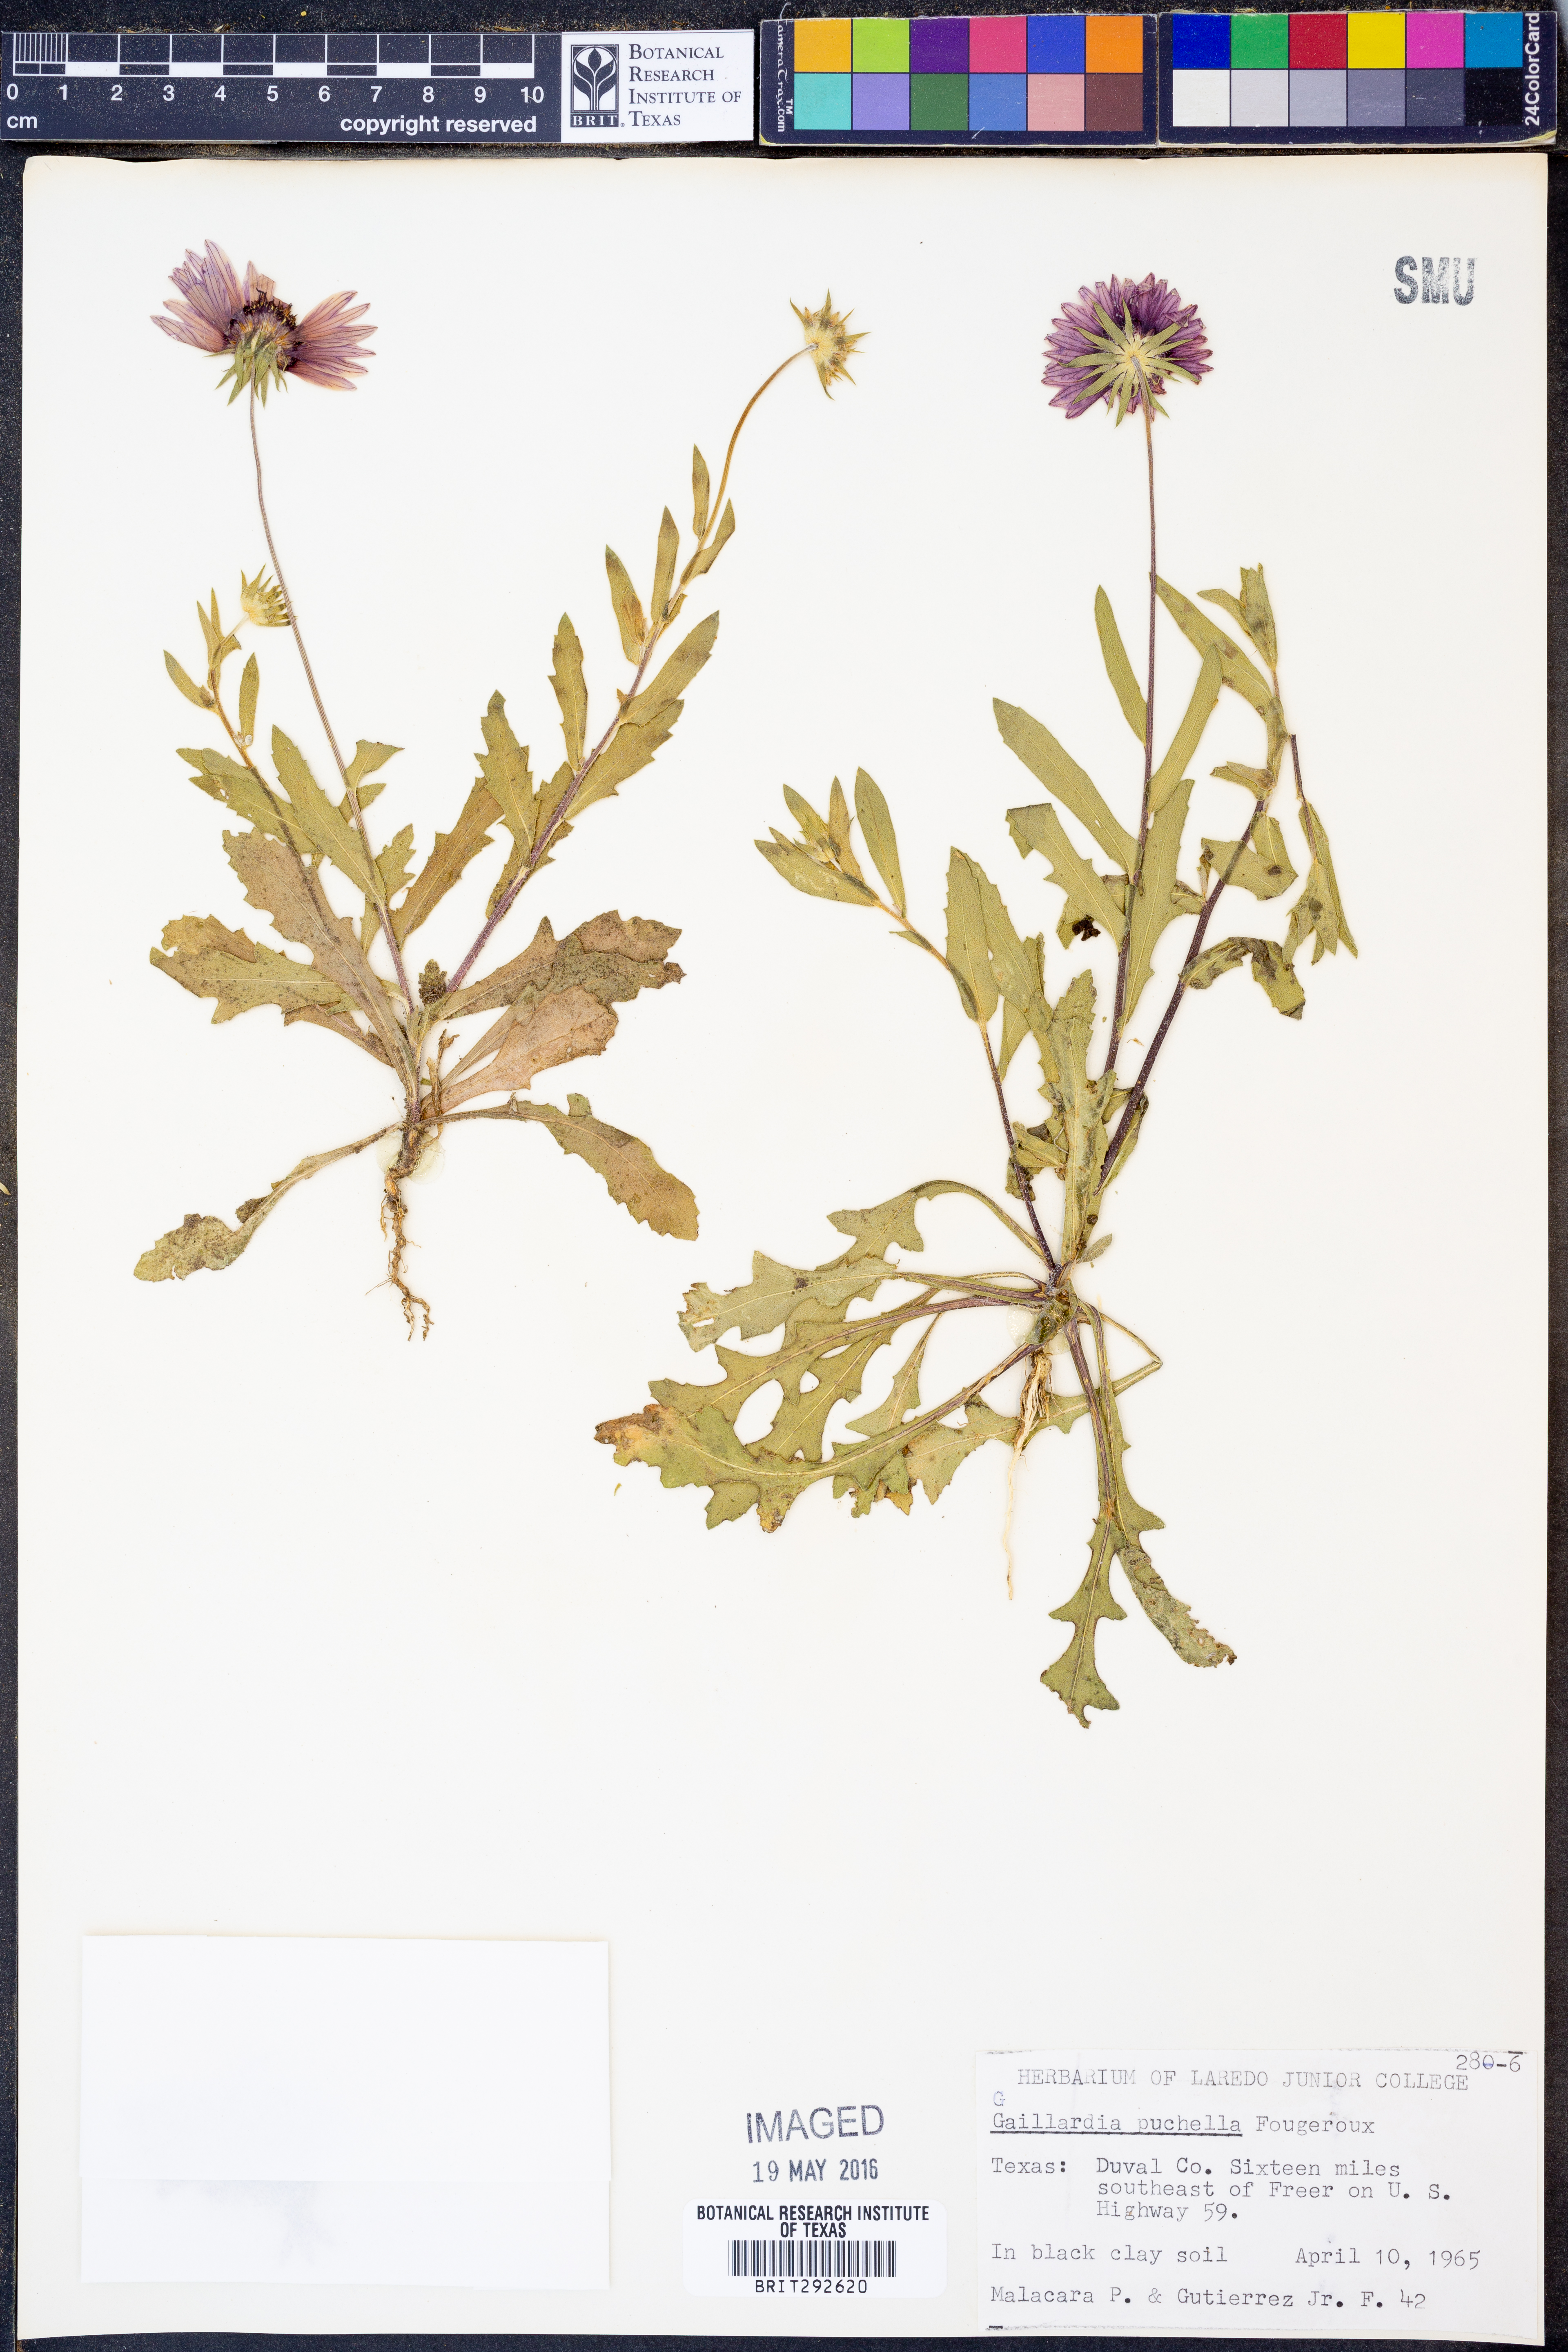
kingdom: Plantae
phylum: Tracheophyta
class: Magnoliopsida
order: Asterales
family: Asteraceae
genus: Gaillardia
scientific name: Gaillardia pulchella
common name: Firewheel
